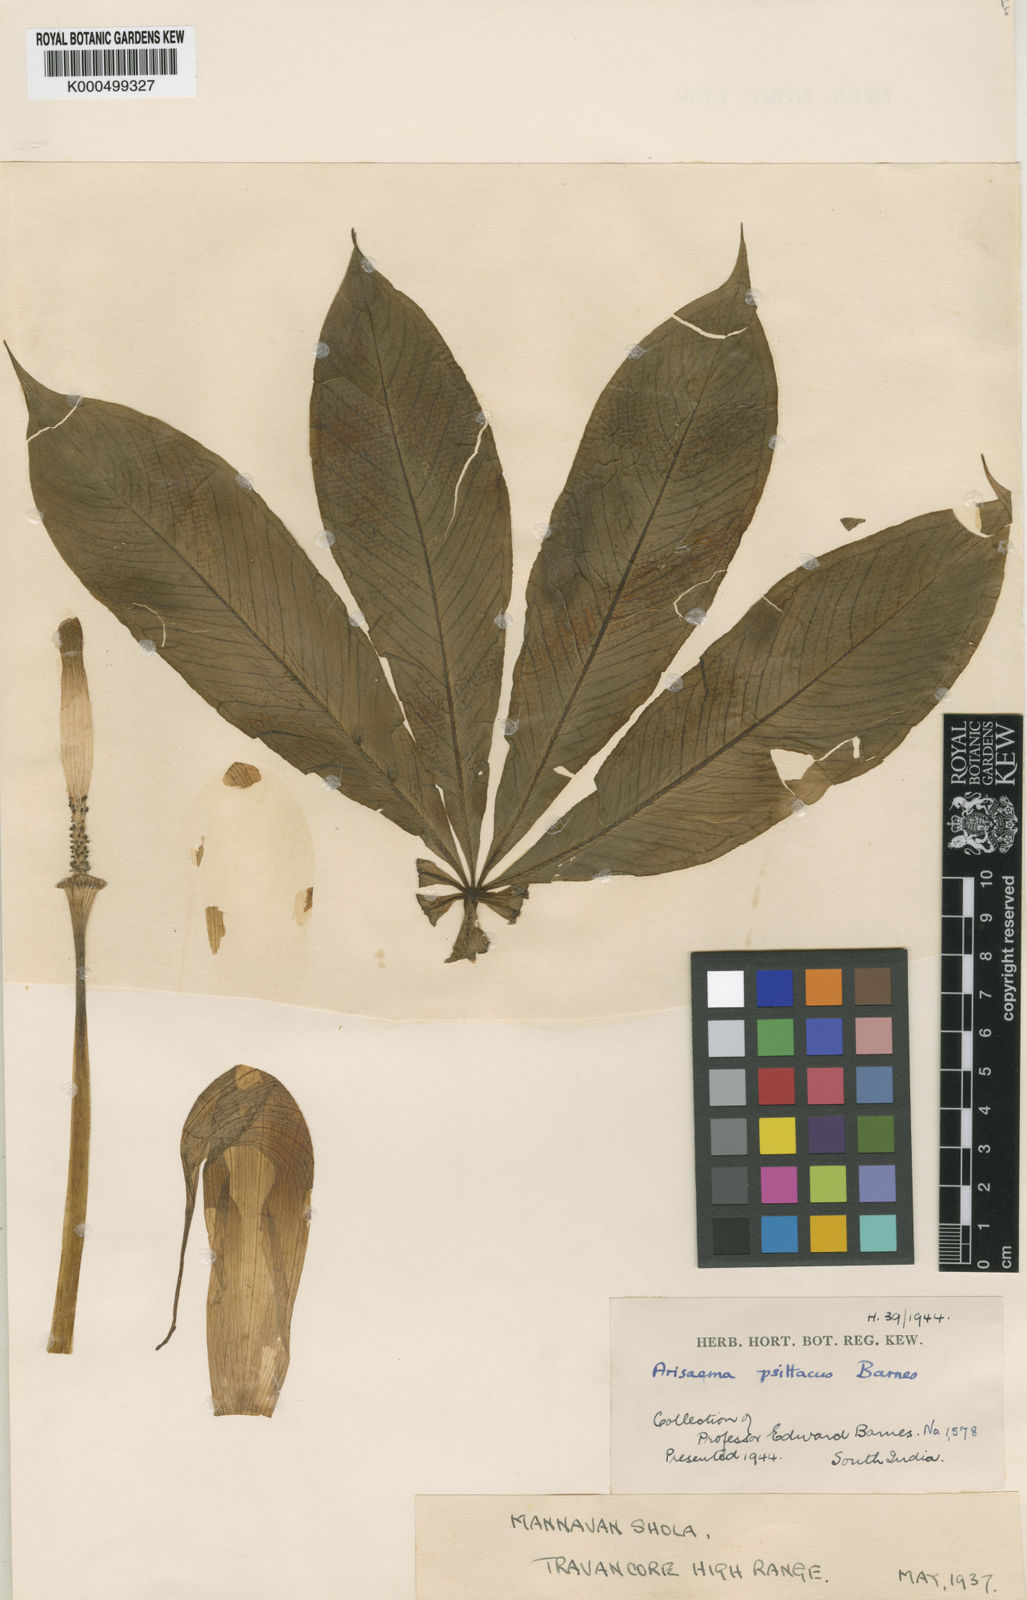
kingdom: Plantae
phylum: Tracheophyta
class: Liliopsida
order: Alismatales
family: Araceae
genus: Arisaema
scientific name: Arisaema psittacus
